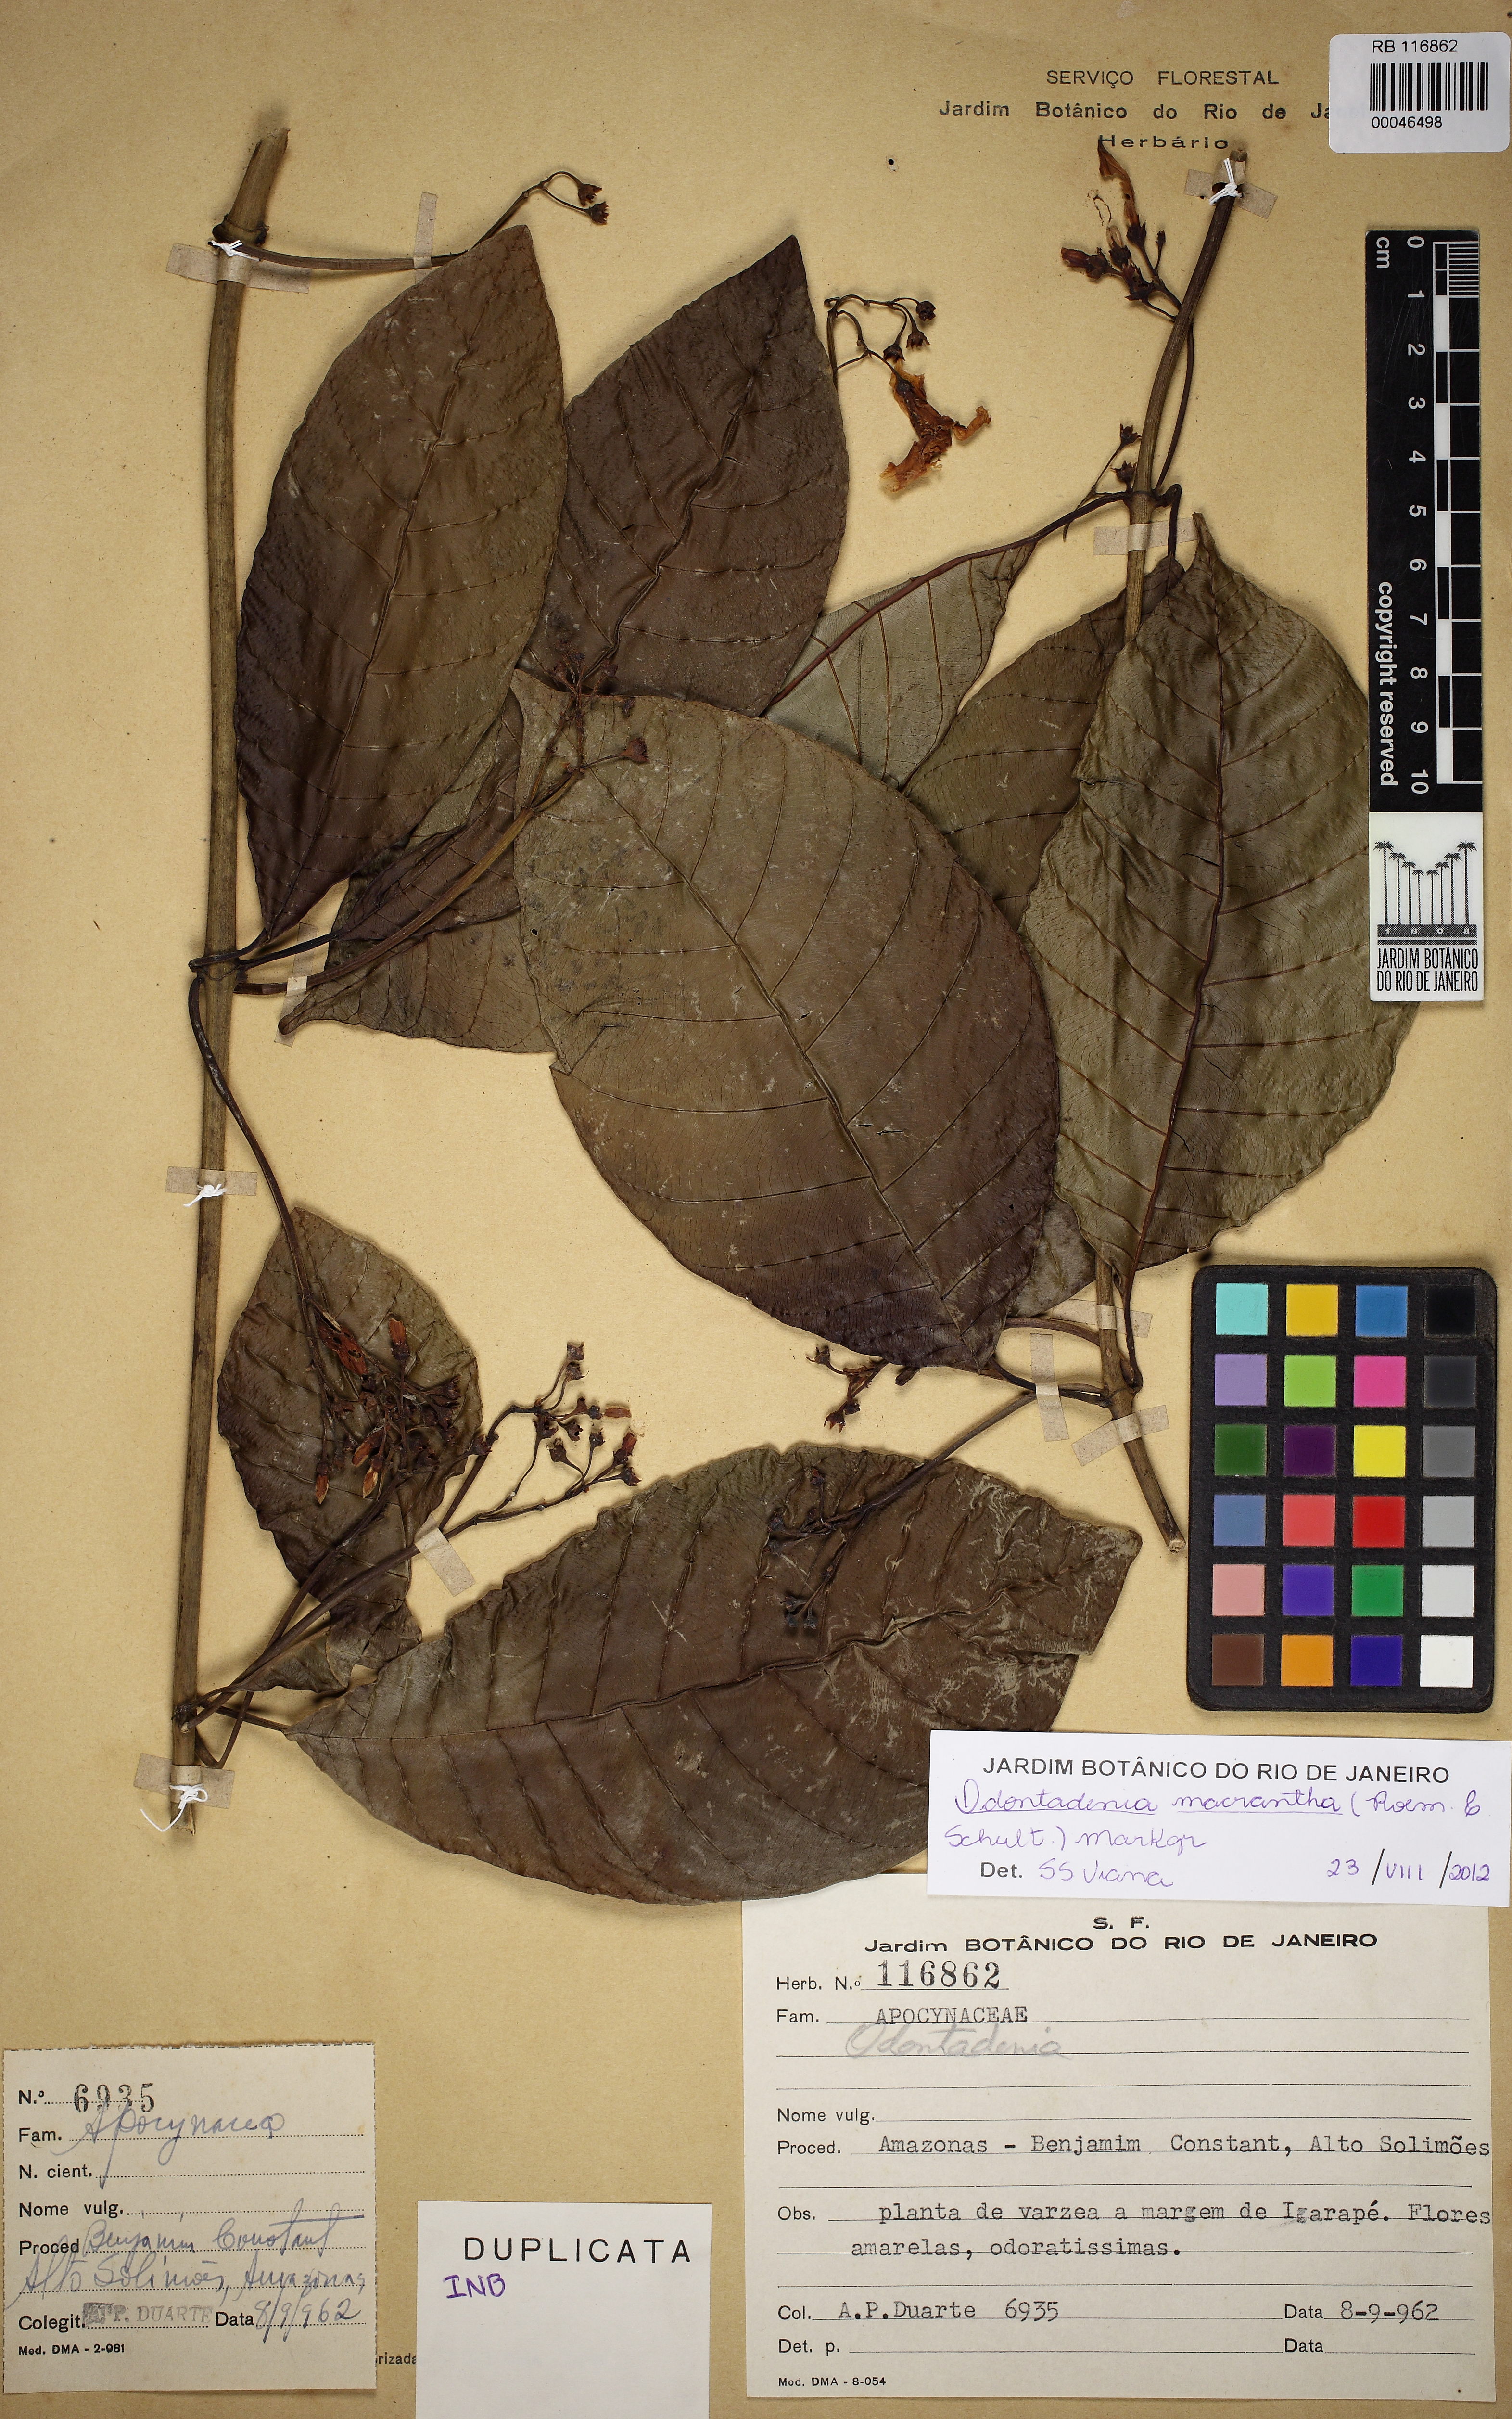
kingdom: Plantae
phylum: Tracheophyta
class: Magnoliopsida
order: Gentianales
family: Apocynaceae
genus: Odontadenia
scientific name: Odontadenia semidigyna
